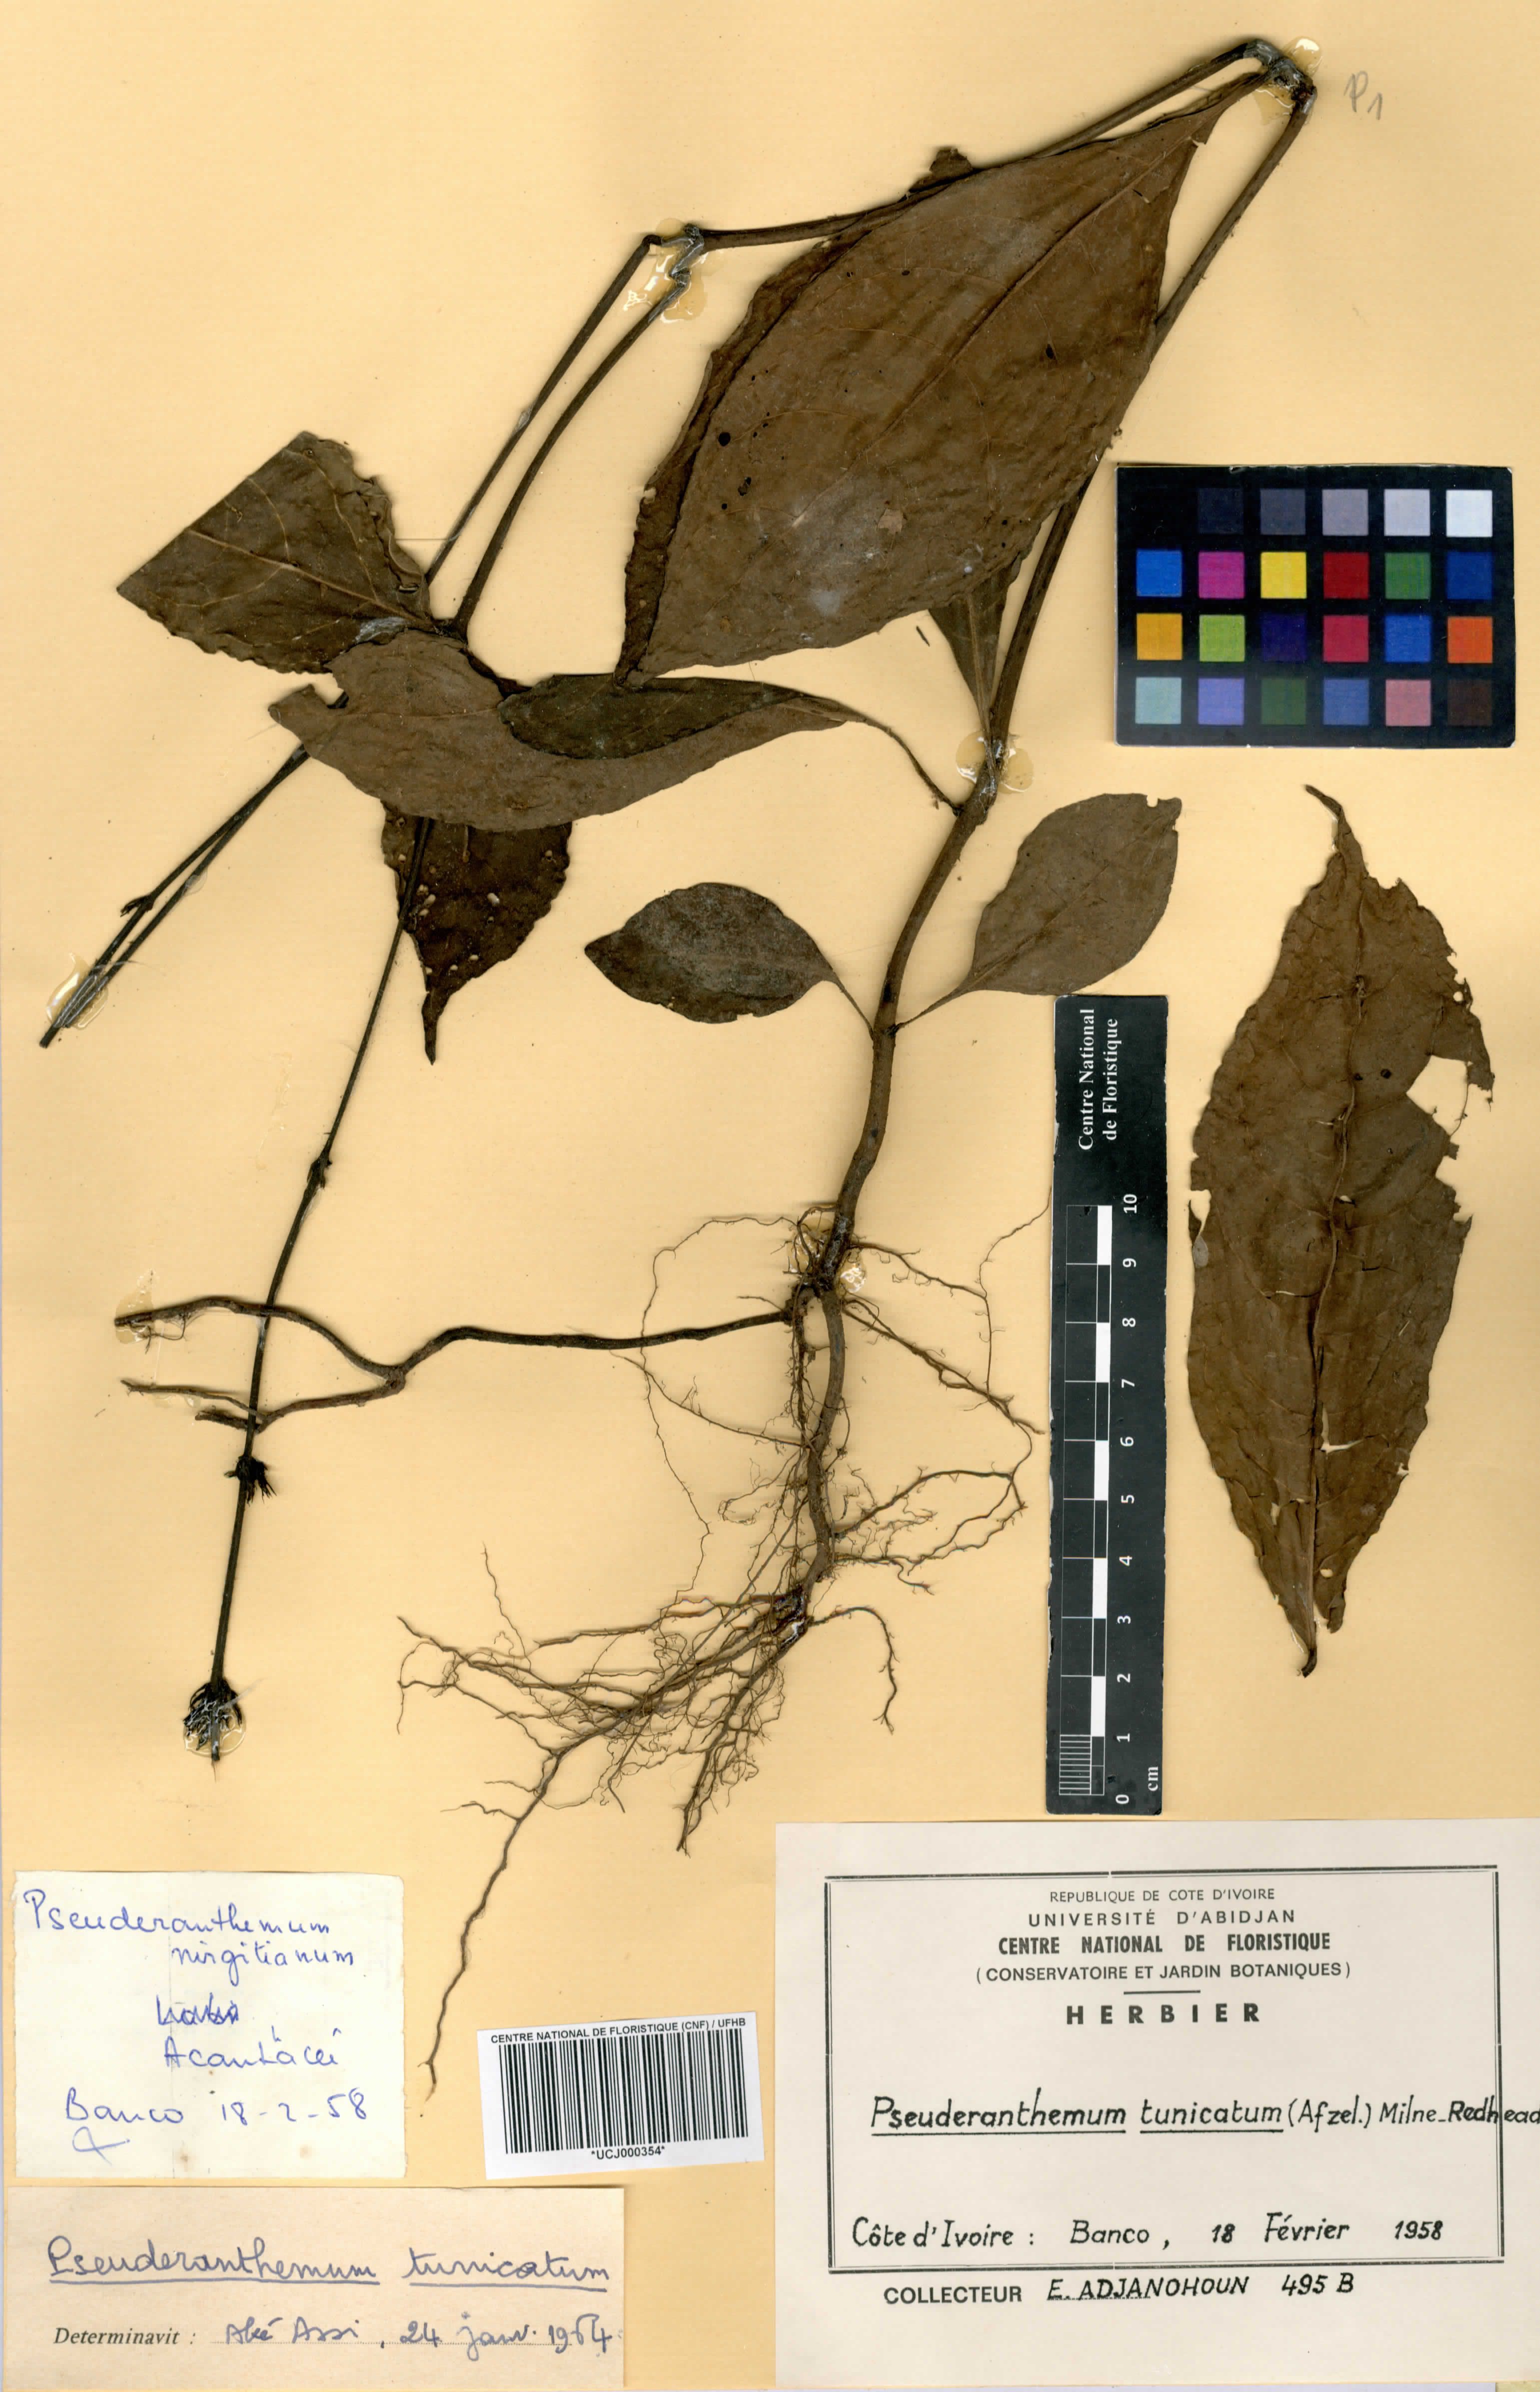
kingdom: Plantae
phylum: Tracheophyta
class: Magnoliopsida
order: Lamiales
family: Acanthaceae
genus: Pseuderanthemum
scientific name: Pseuderanthemum tunicatum
